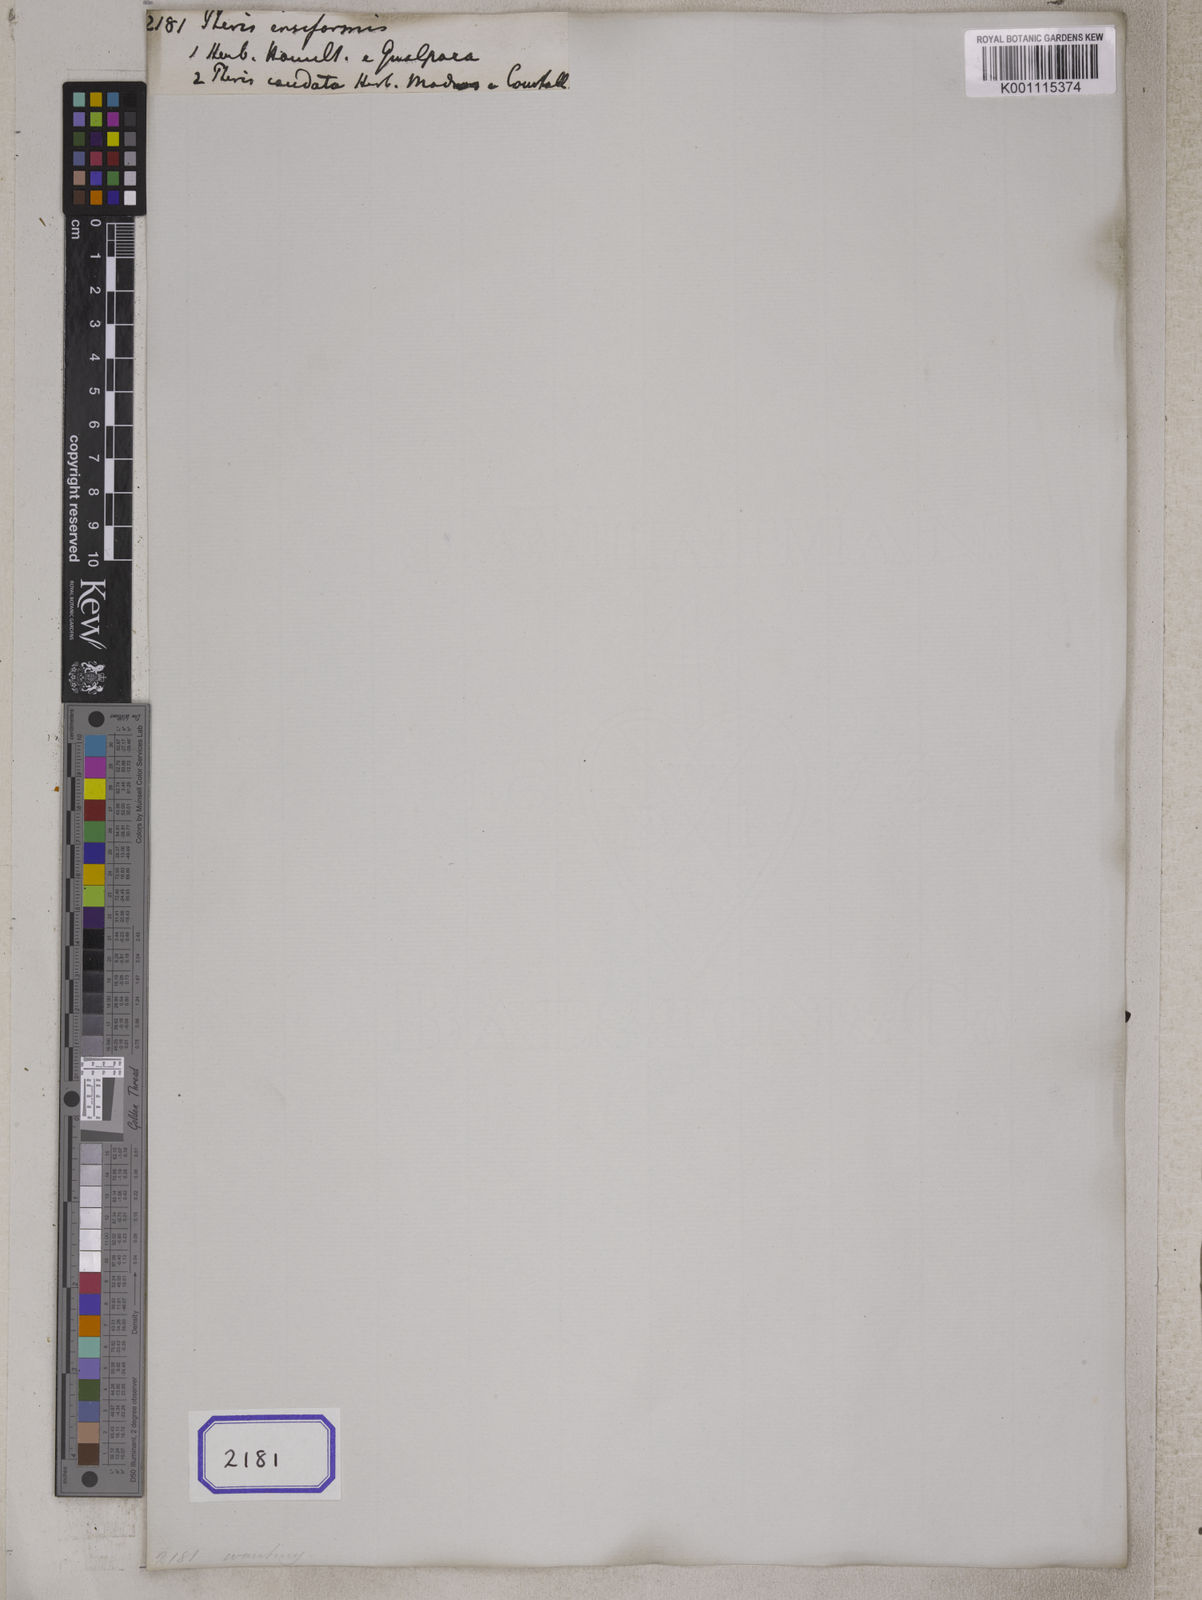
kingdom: Plantae
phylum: Tracheophyta
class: Polypodiopsida
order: Polypodiales
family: Pteridaceae
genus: Pteris
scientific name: Pteris ensiformis
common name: Sword brake
